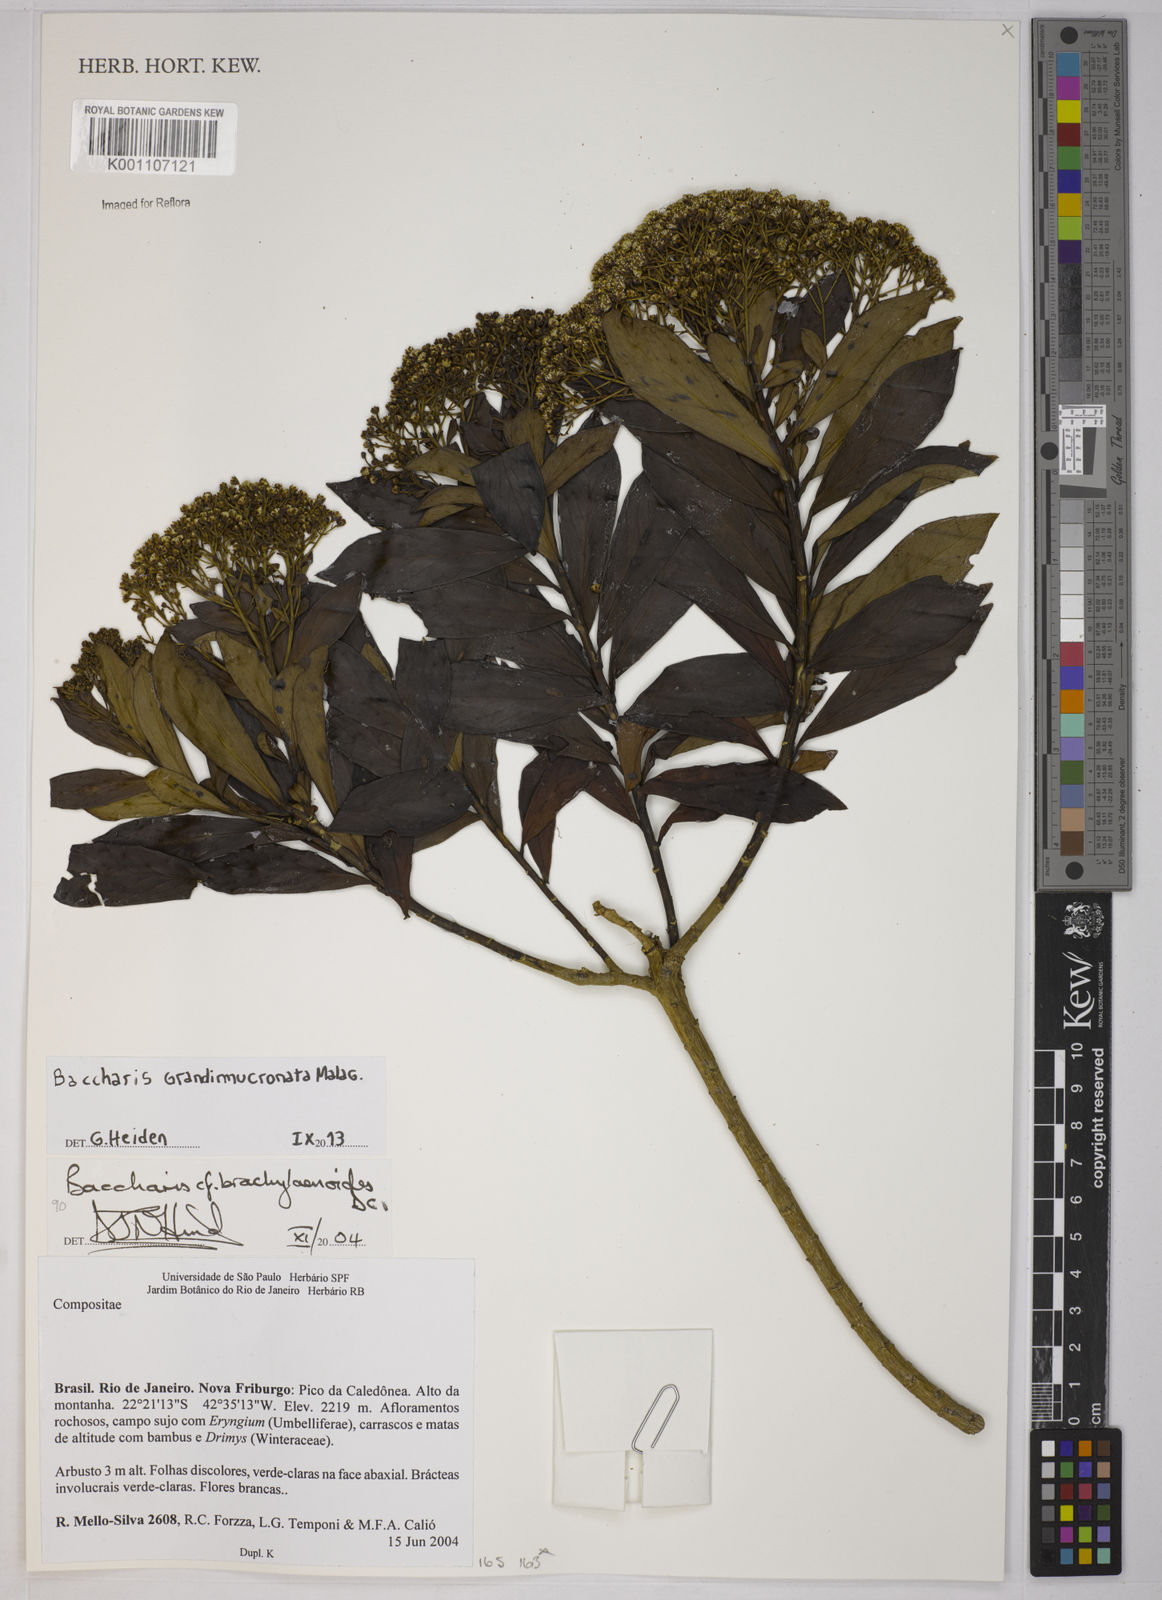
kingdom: Plantae
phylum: Tracheophyta
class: Magnoliopsida
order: Asterales
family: Asteraceae
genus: Baccharis
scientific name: Baccharis grandimucronata
